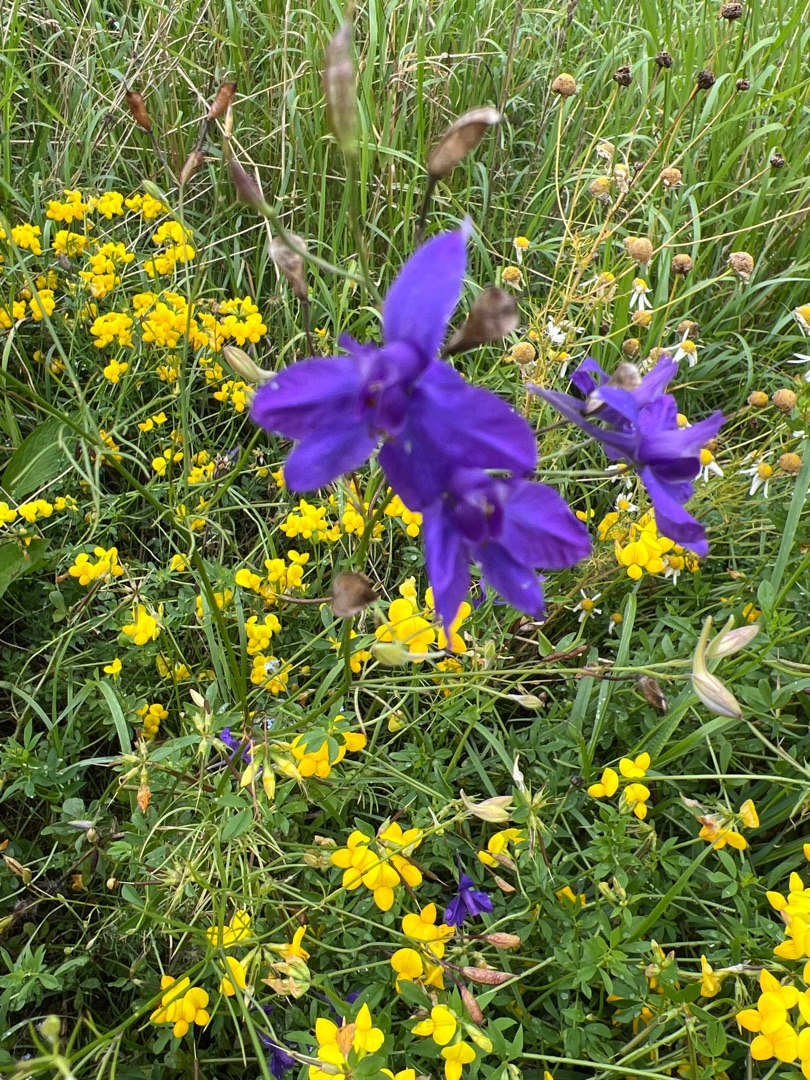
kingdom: Plantae
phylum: Tracheophyta
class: Magnoliopsida
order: Ranunculales
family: Ranunculaceae
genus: Delphinium
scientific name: Delphinium consolida
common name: Korn-ridderspore
